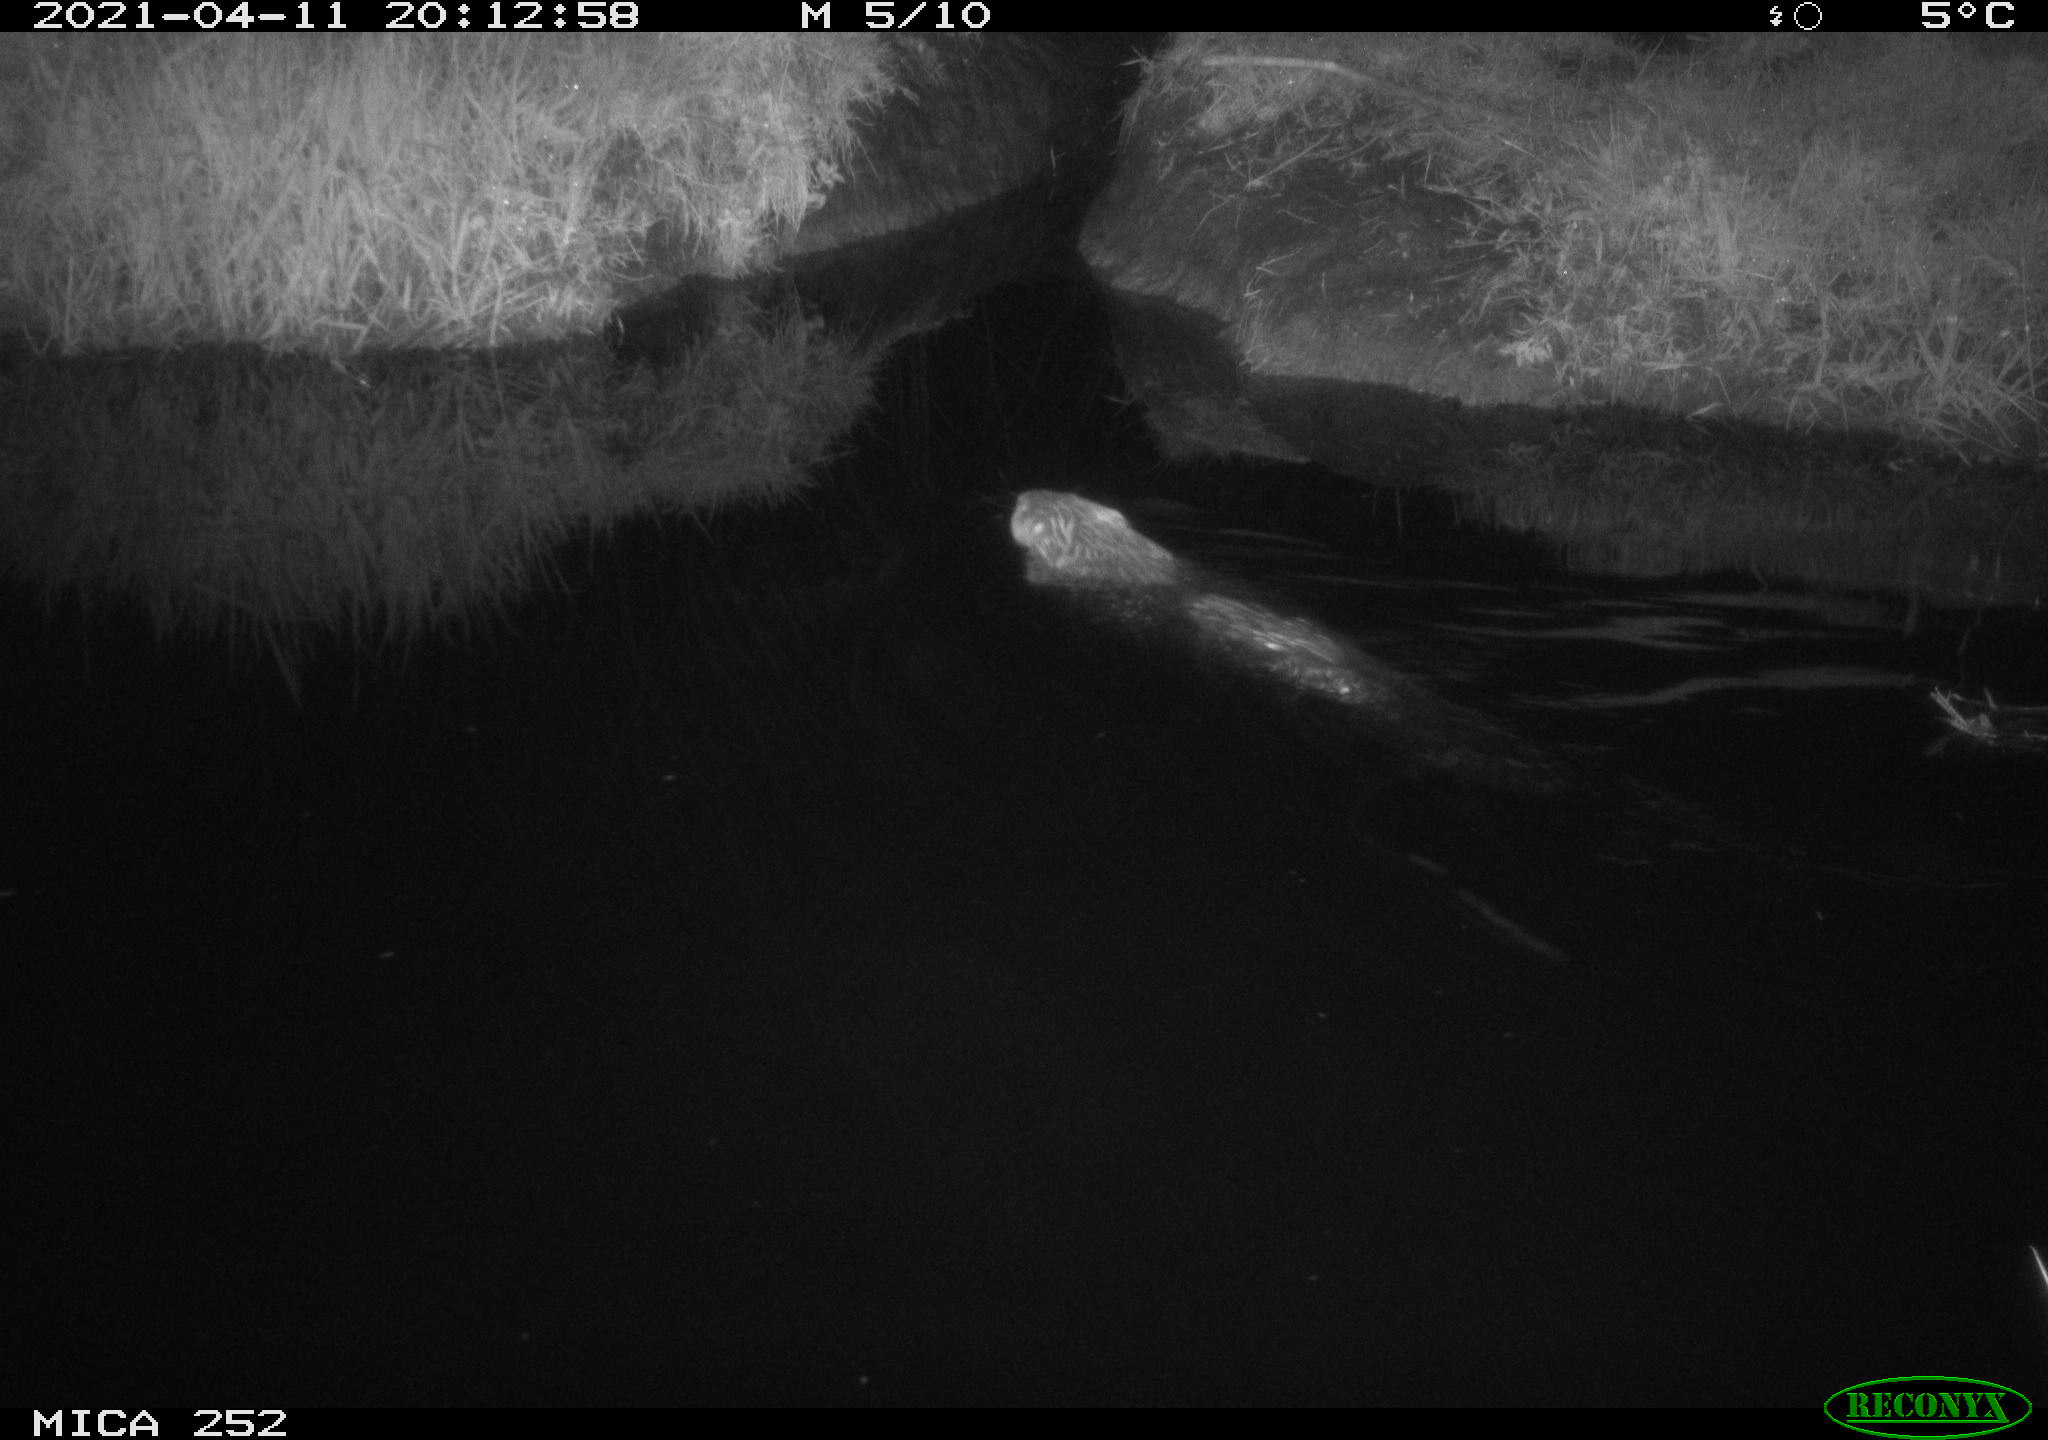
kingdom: Animalia
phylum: Chordata
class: Mammalia
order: Rodentia
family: Castoridae
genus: Castor
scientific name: Castor fiber
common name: Eurasian beaver
